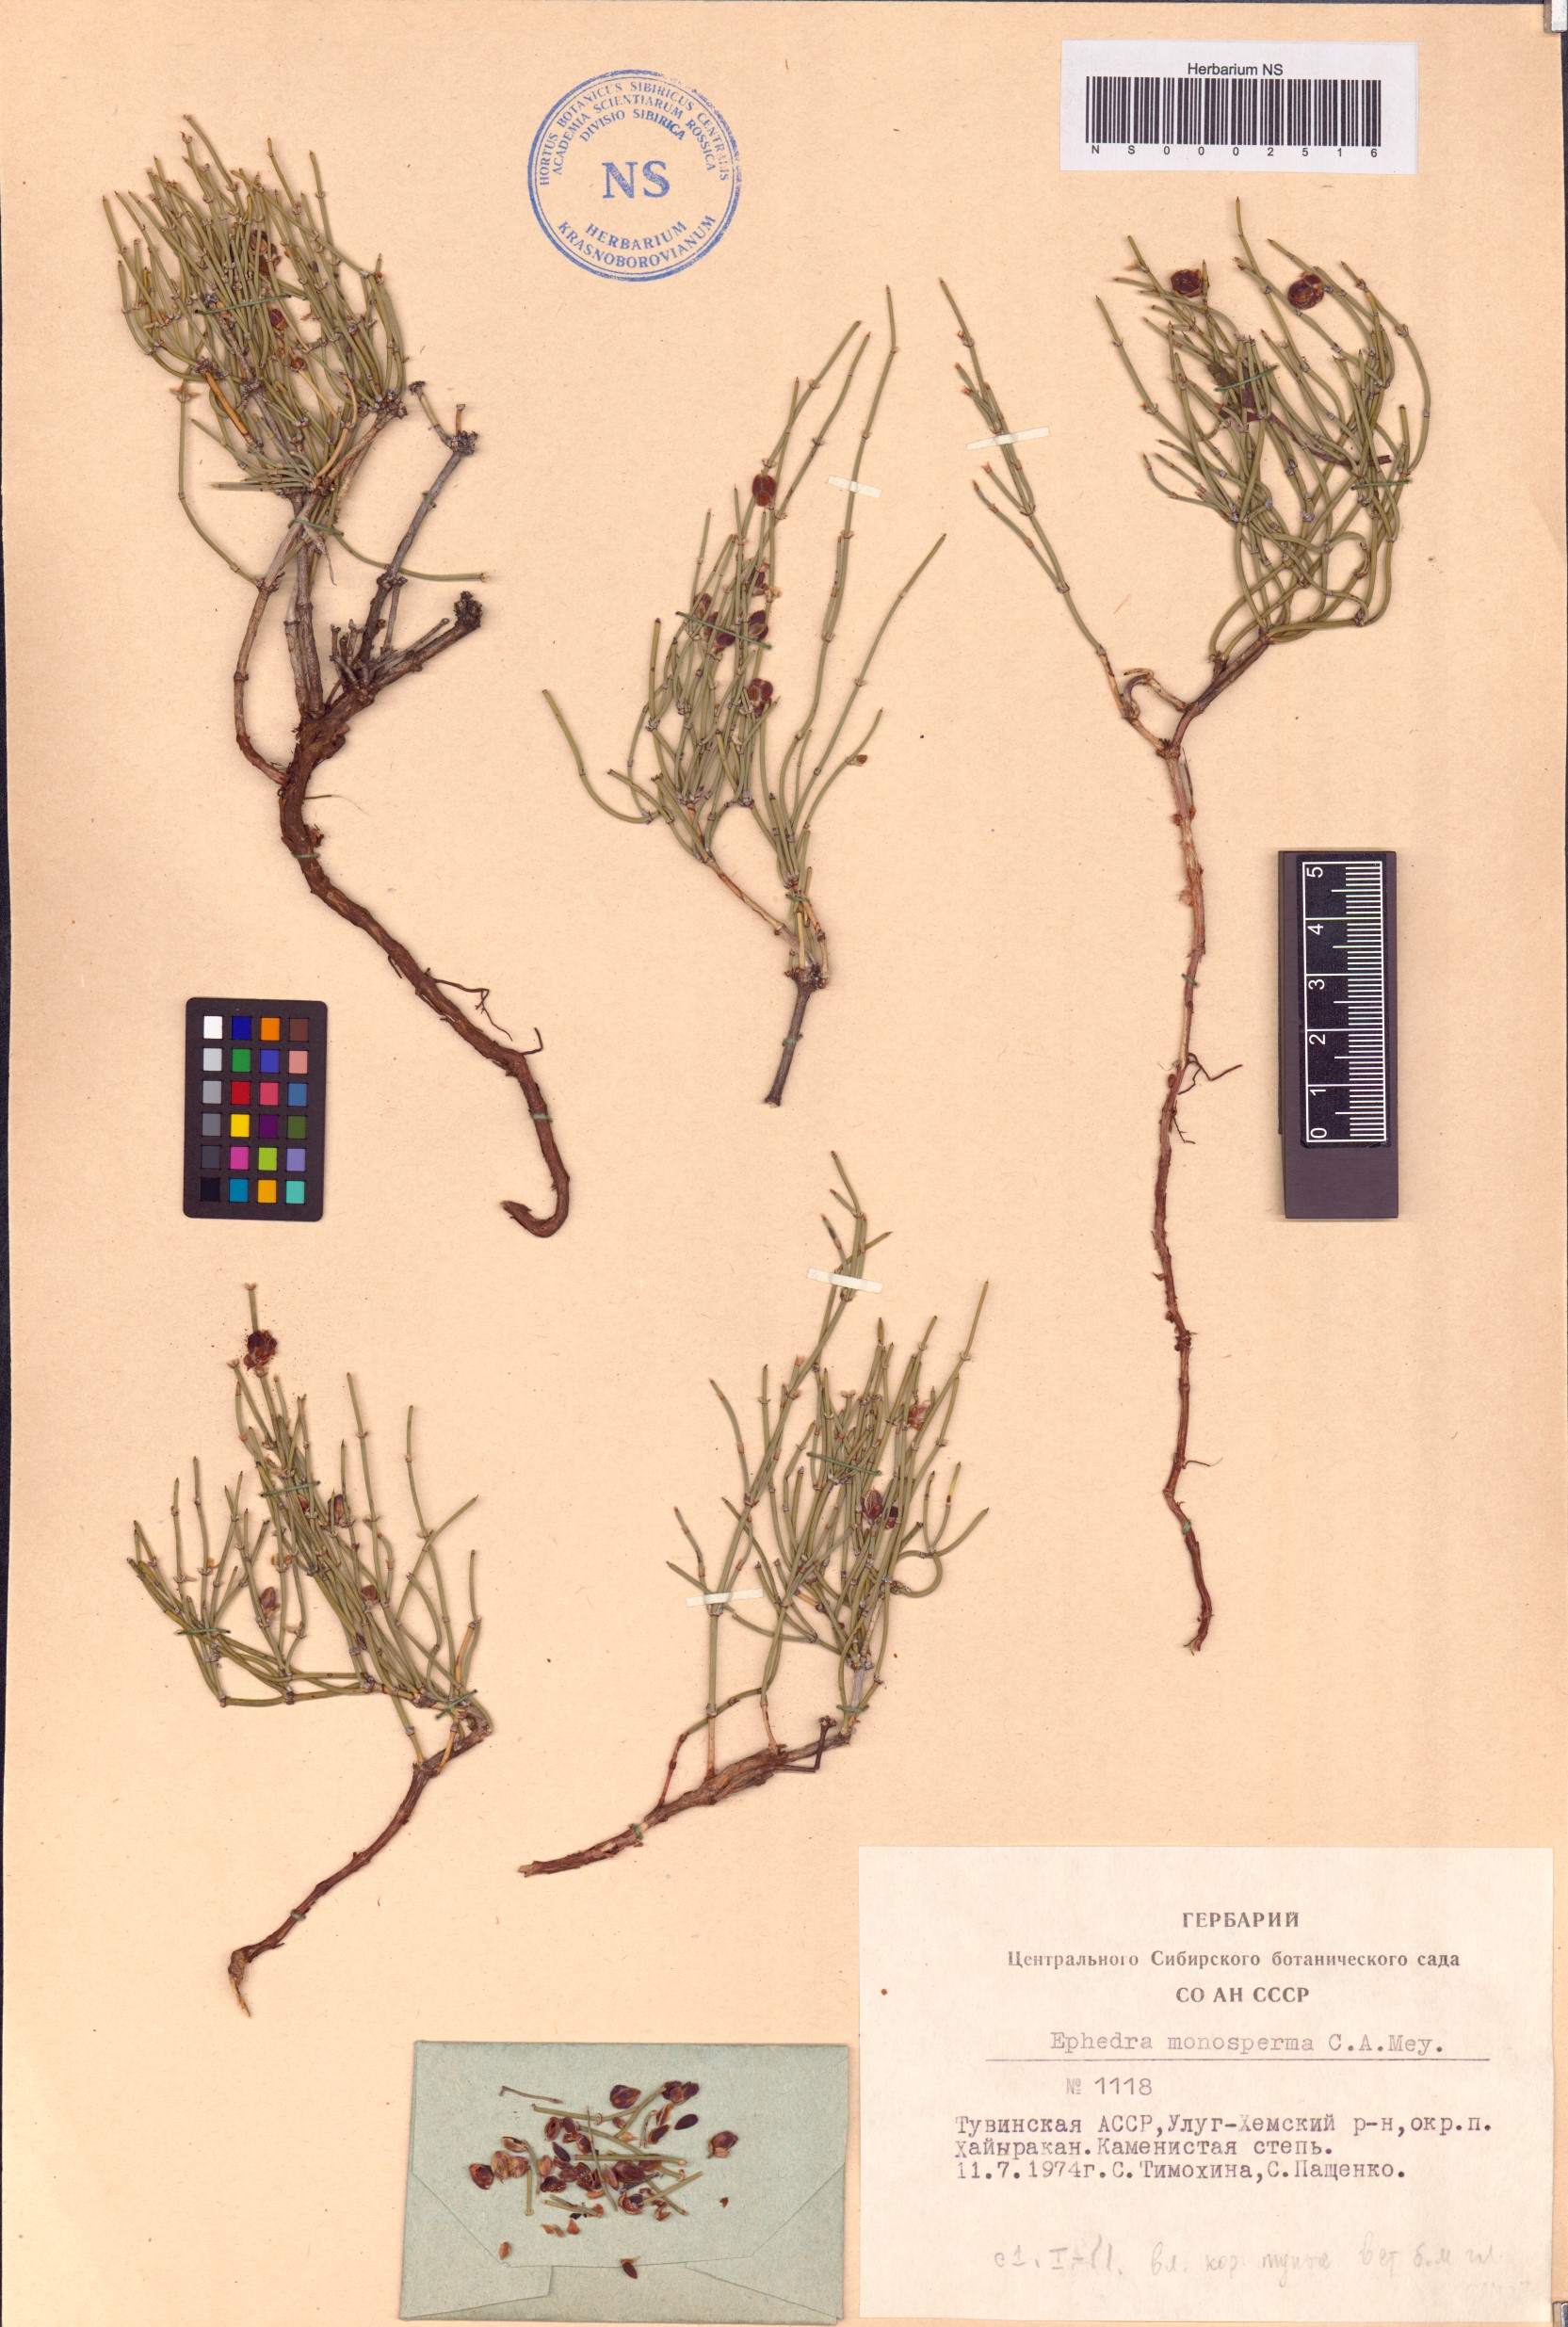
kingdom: Plantae
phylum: Tracheophyta
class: Gnetopsida
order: Ephedrales
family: Ephedraceae
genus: Ephedra
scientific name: Ephedra monosperma
